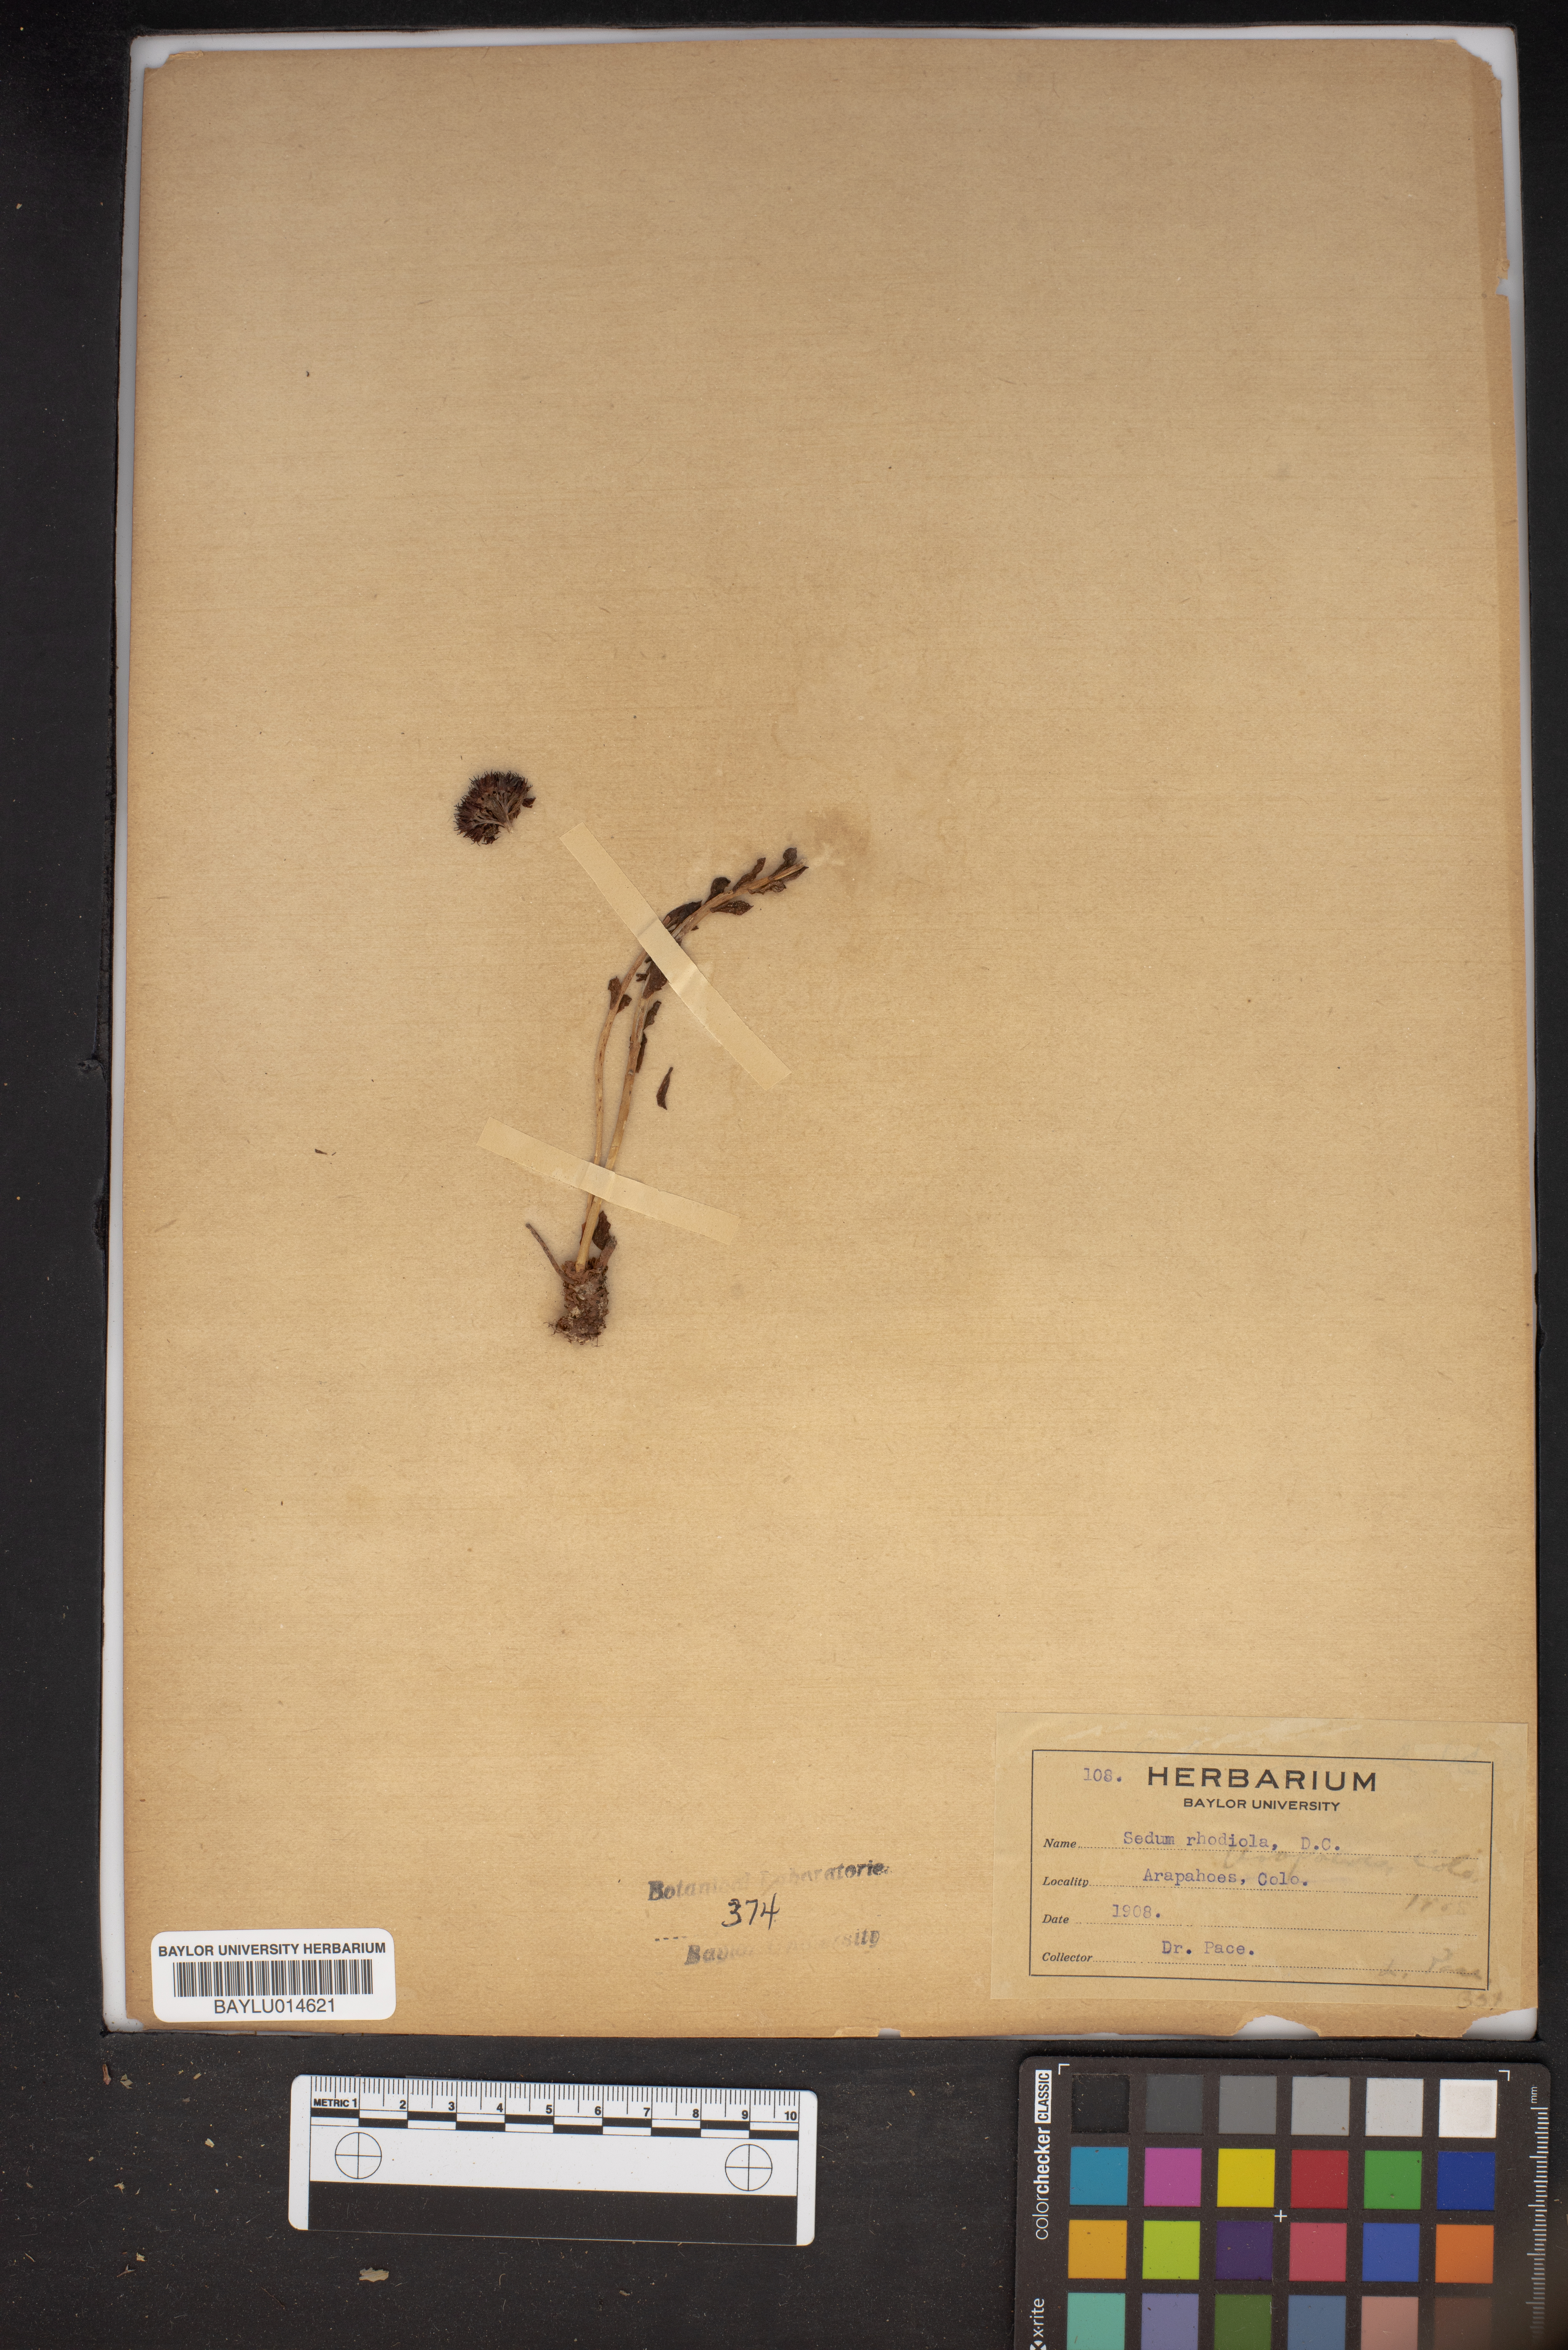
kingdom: Plantae
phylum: Tracheophyta
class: Magnoliopsida
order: Saxifragales
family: Crassulaceae
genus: Rhodiola
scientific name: Rhodiola rosea
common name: Roseroot
